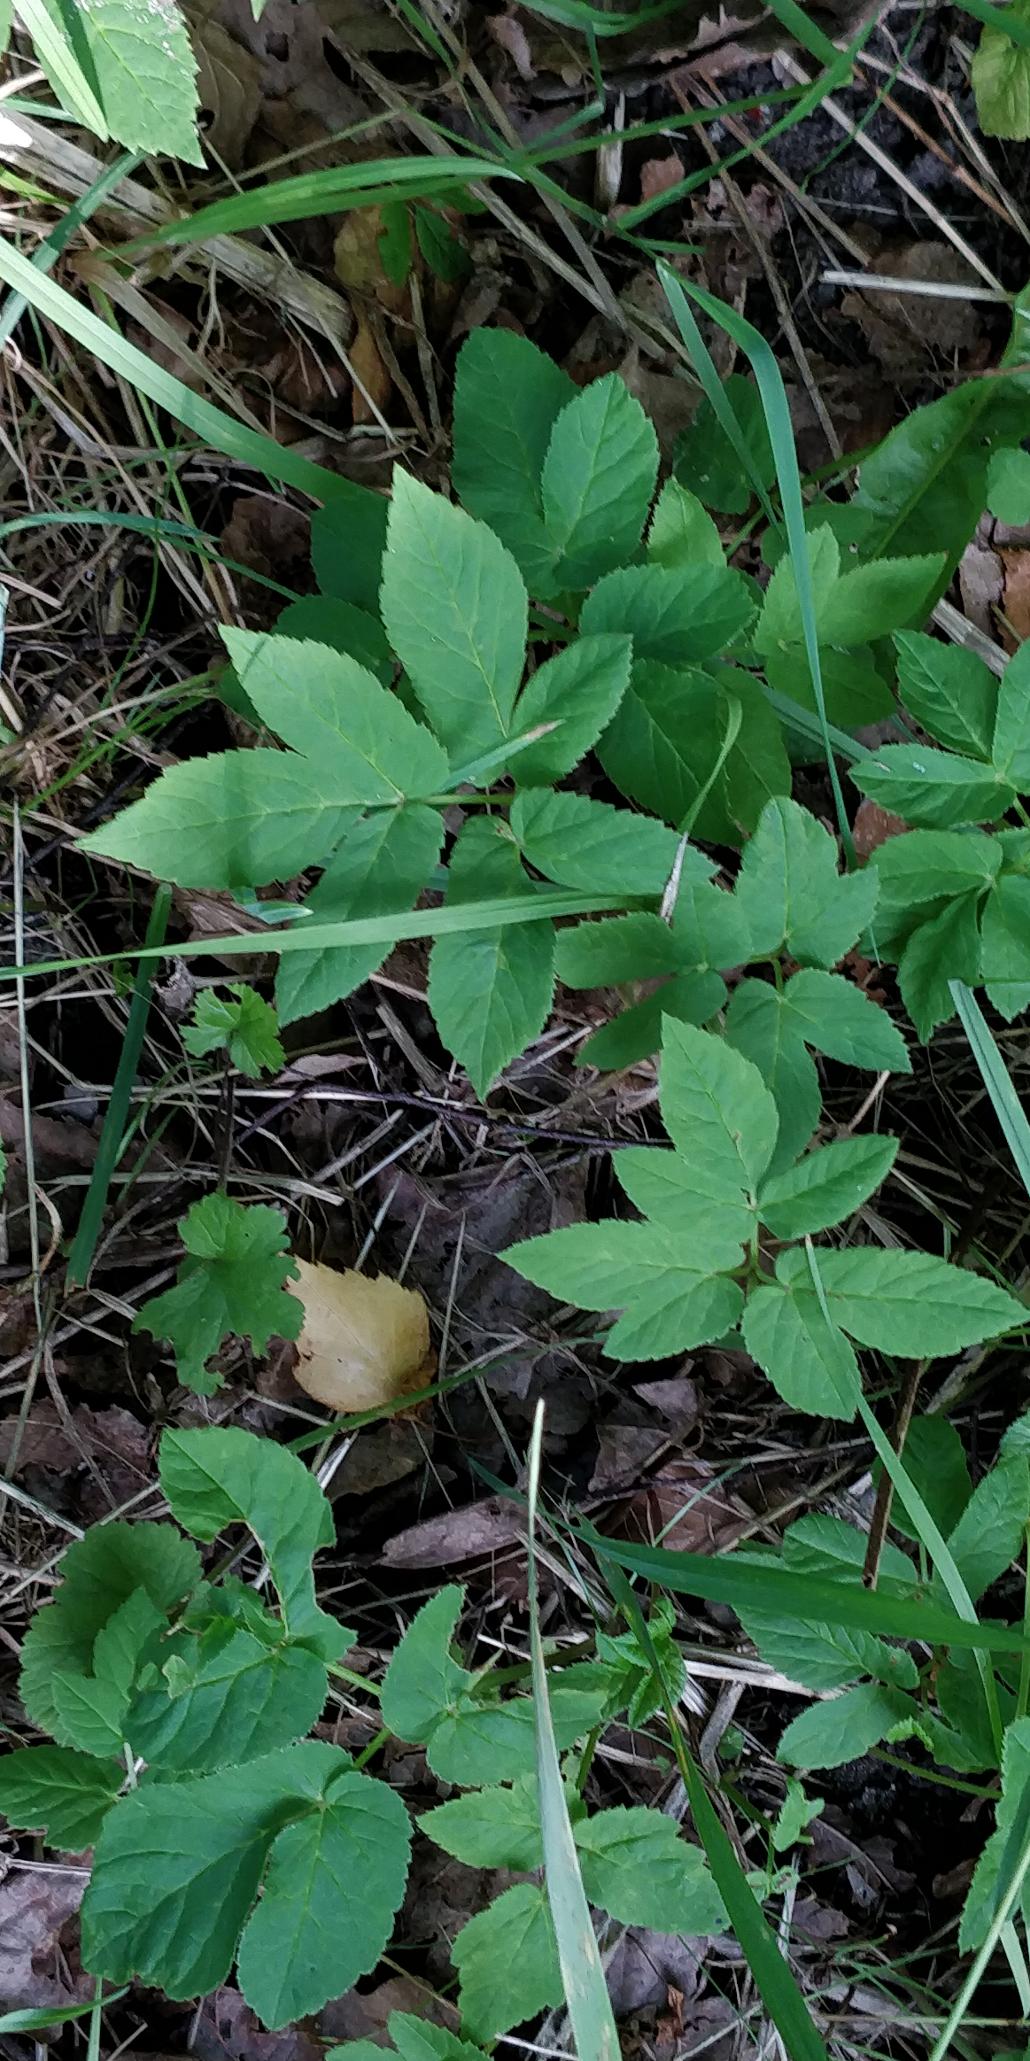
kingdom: Plantae
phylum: Tracheophyta
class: Magnoliopsida
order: Apiales
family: Apiaceae
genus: Aegopodium
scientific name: Aegopodium podagraria
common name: Skvalderkål
